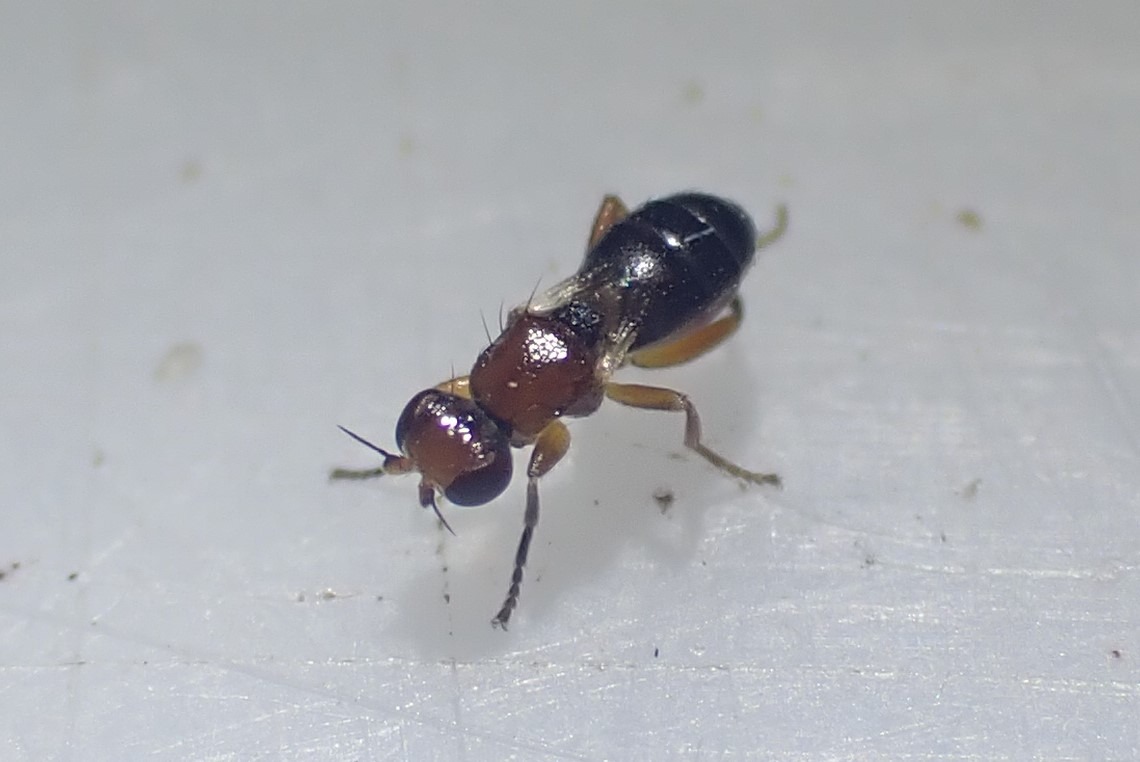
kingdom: Animalia
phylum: Arthropoda
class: Insecta
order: Diptera
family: Chloropidae
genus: Elachiptera
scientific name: Elachiptera brevipennis
